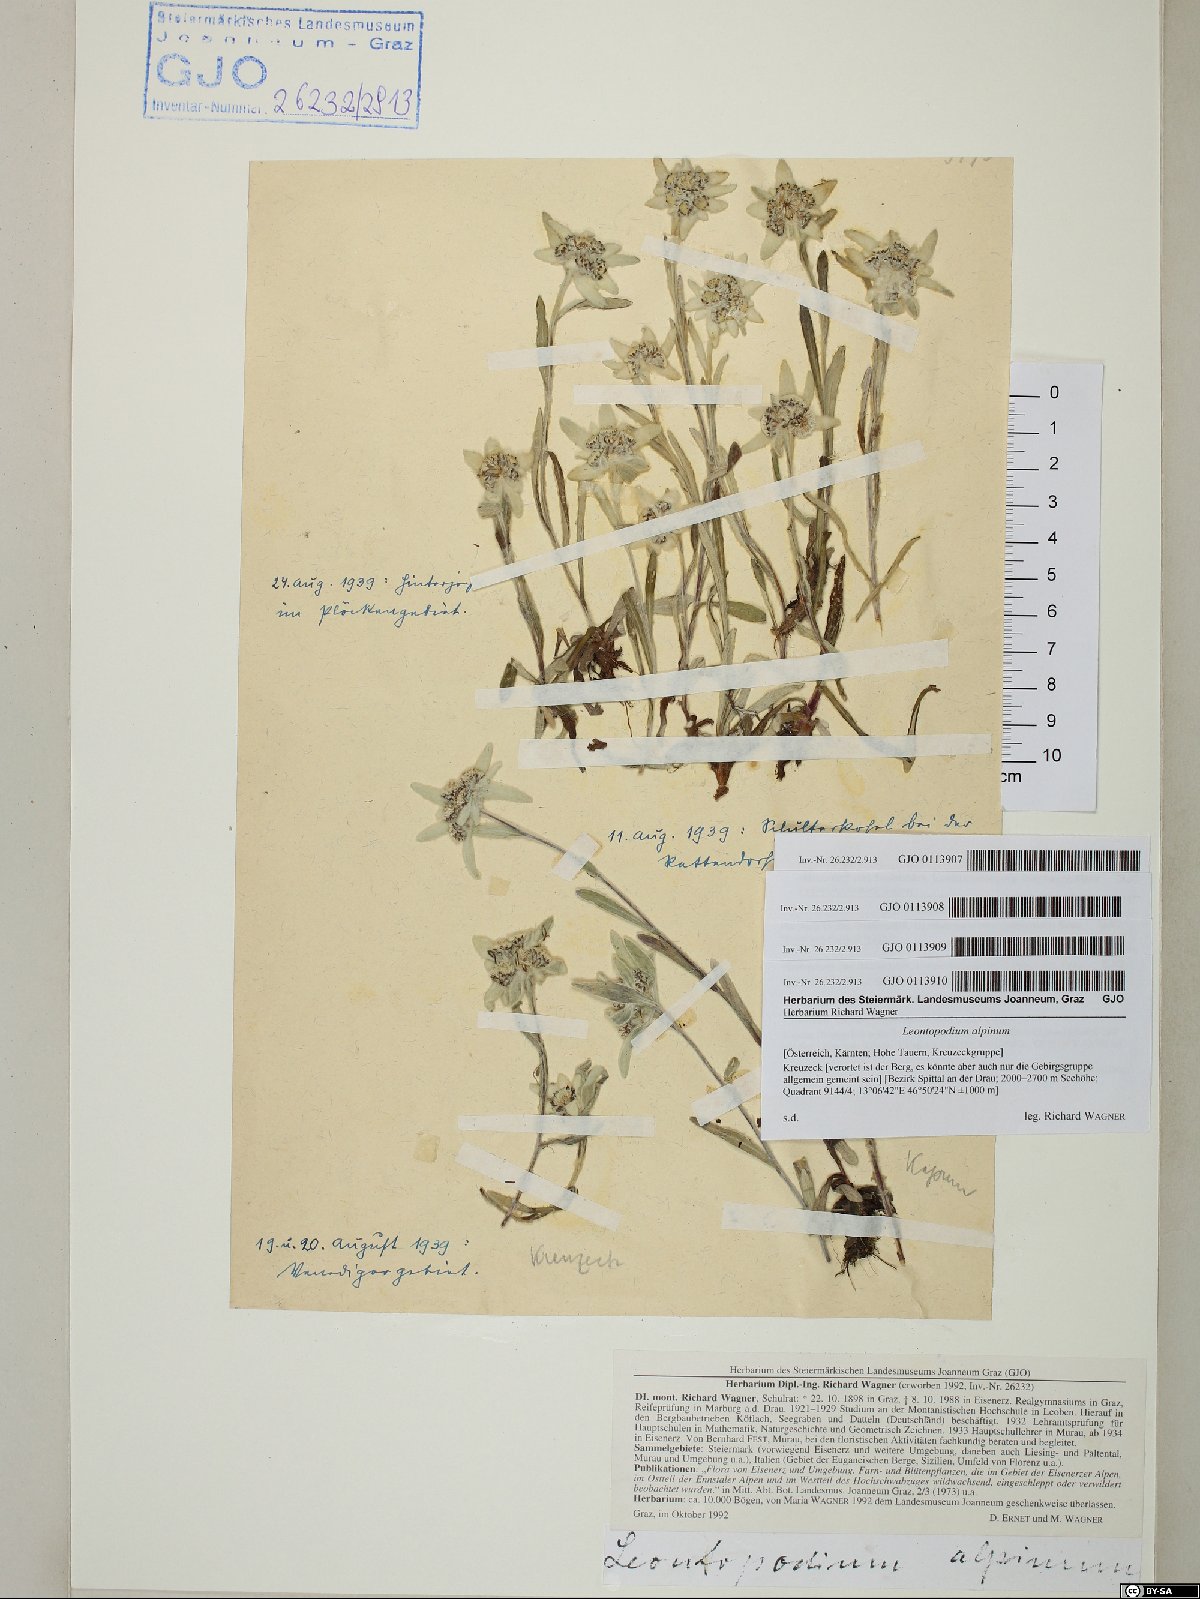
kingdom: Plantae
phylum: Tracheophyta
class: Magnoliopsida
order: Asterales
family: Asteraceae
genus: Leontopodium
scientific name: Leontopodium nivale
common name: Edelweiss
